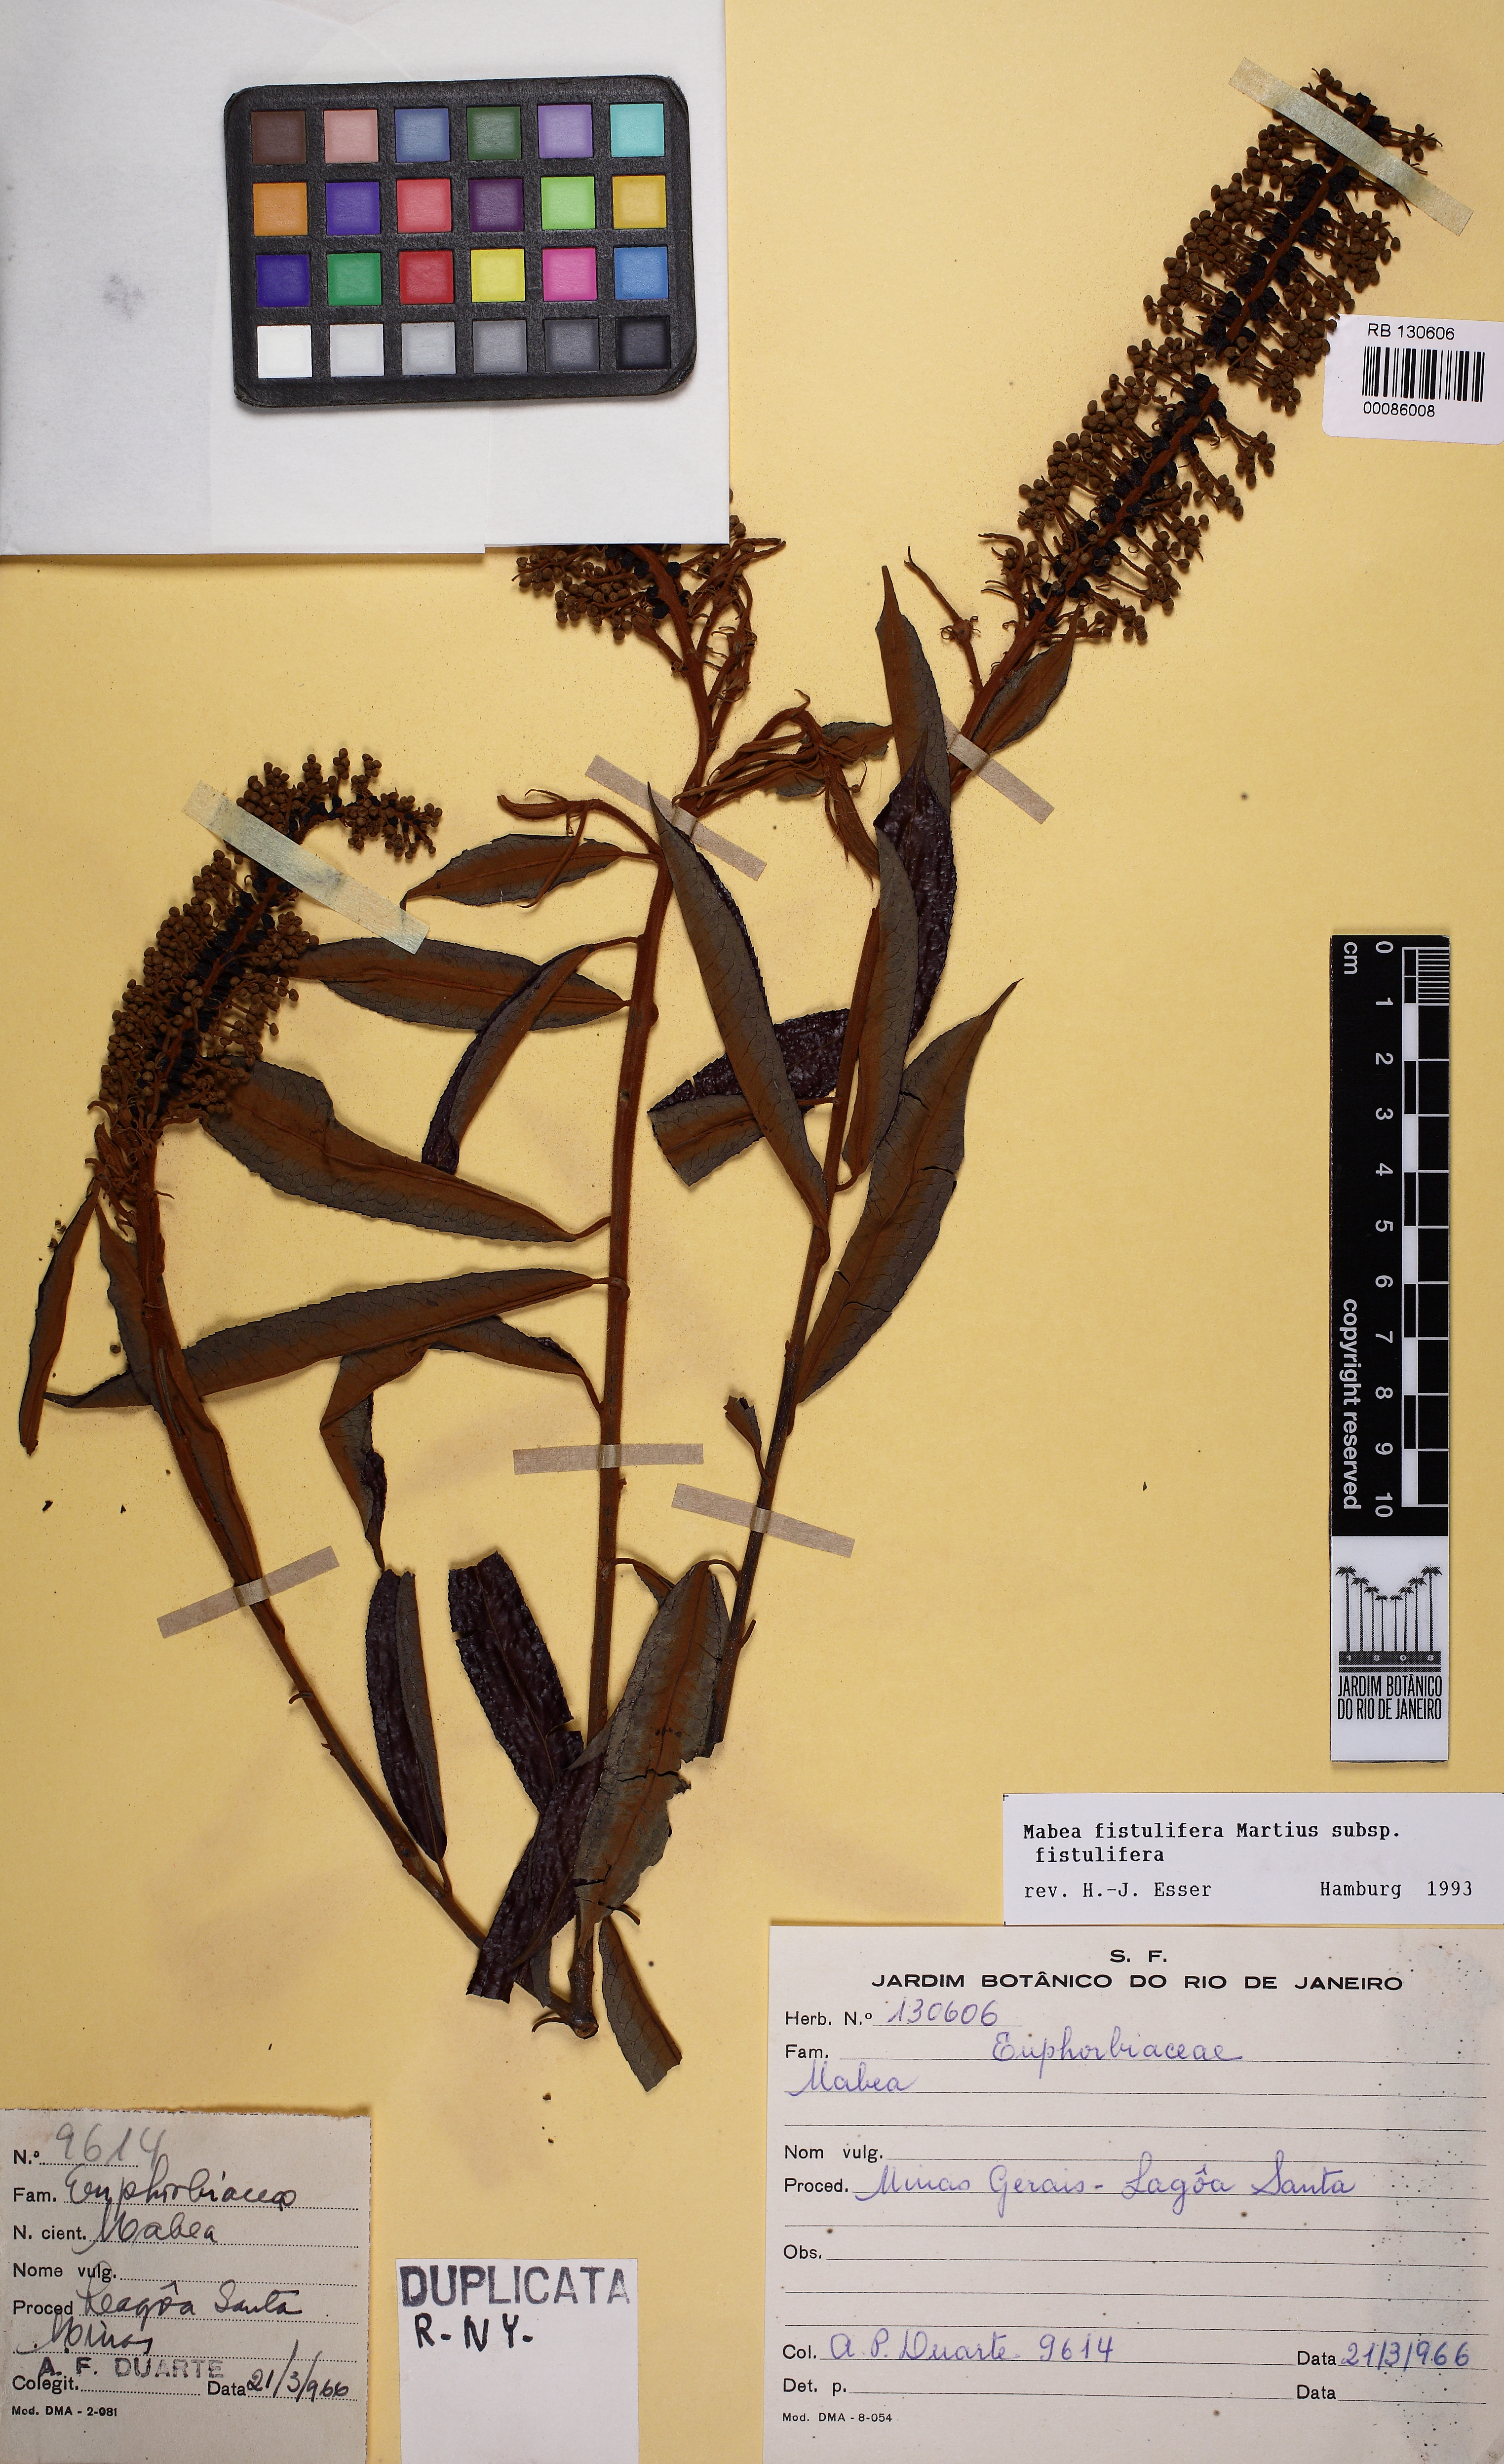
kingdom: Plantae
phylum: Tracheophyta
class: Magnoliopsida
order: Malpighiales
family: Euphorbiaceae
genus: Mabea
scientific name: Mabea fistulifera
